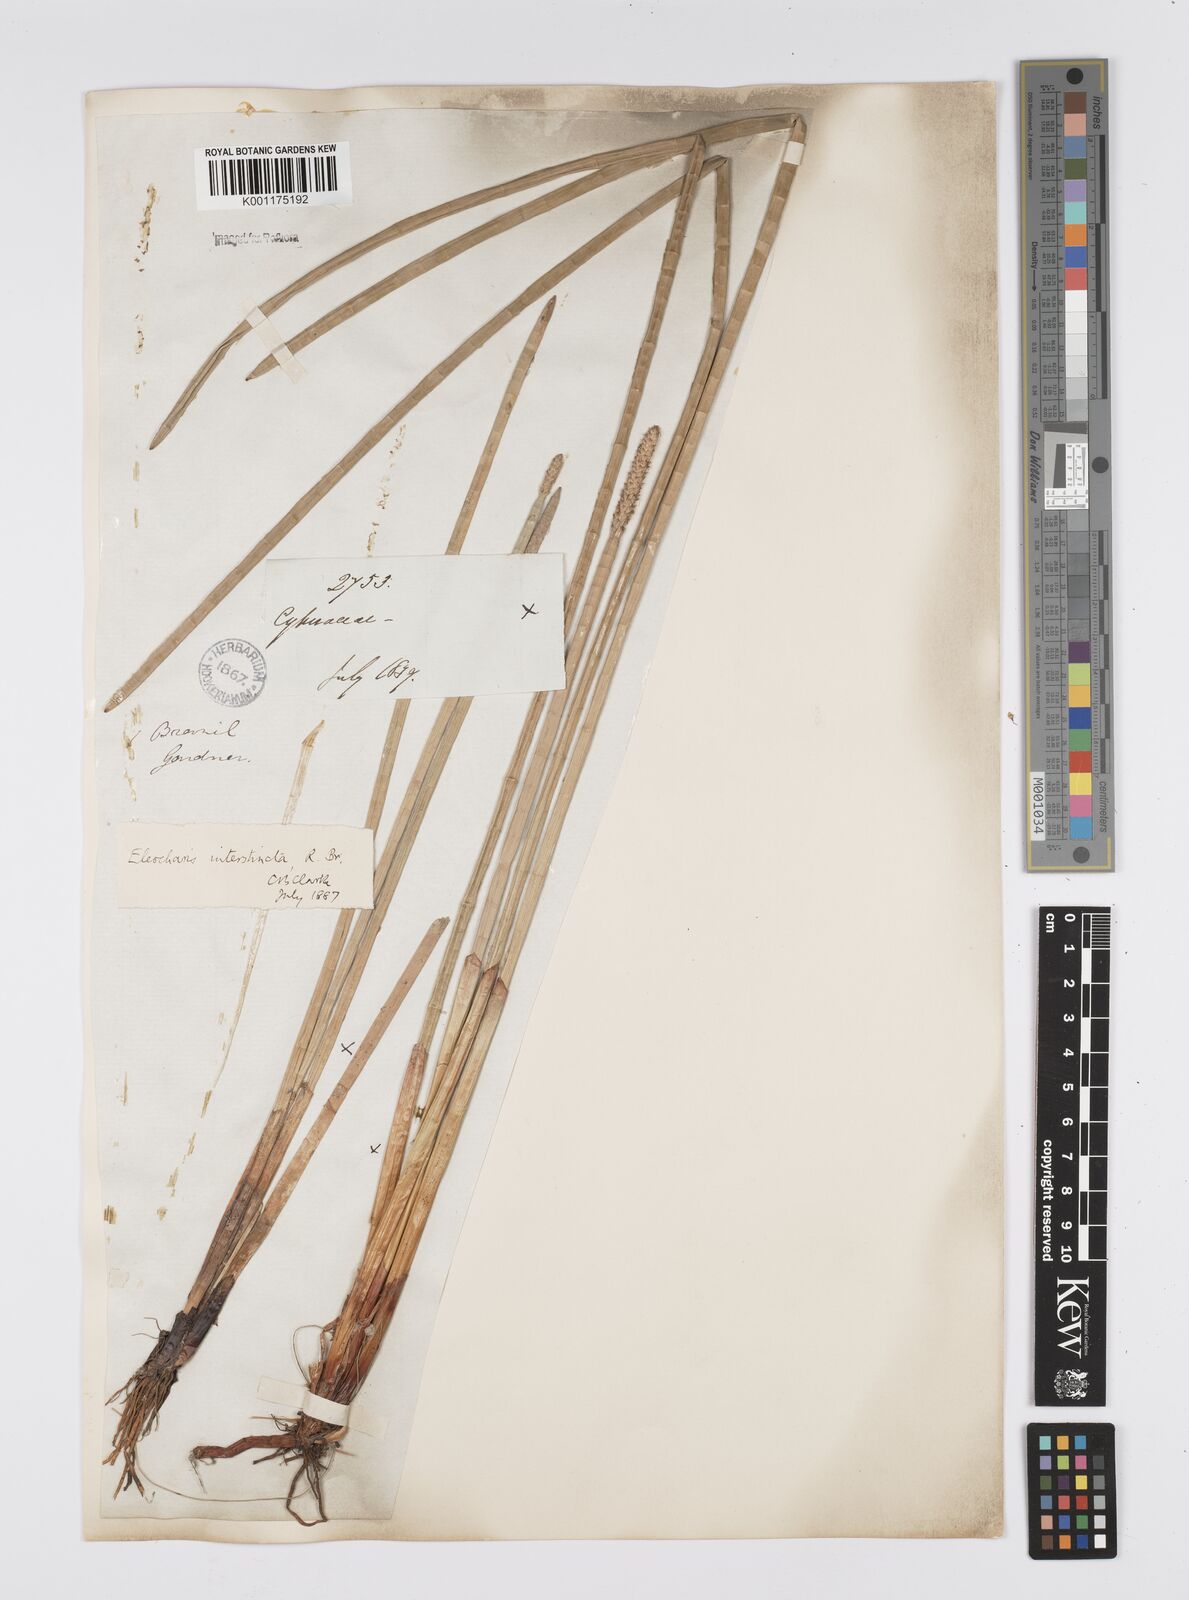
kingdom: Plantae
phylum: Tracheophyta
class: Liliopsida
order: Poales
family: Cyperaceae
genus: Eleocharis
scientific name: Eleocharis interstincta
